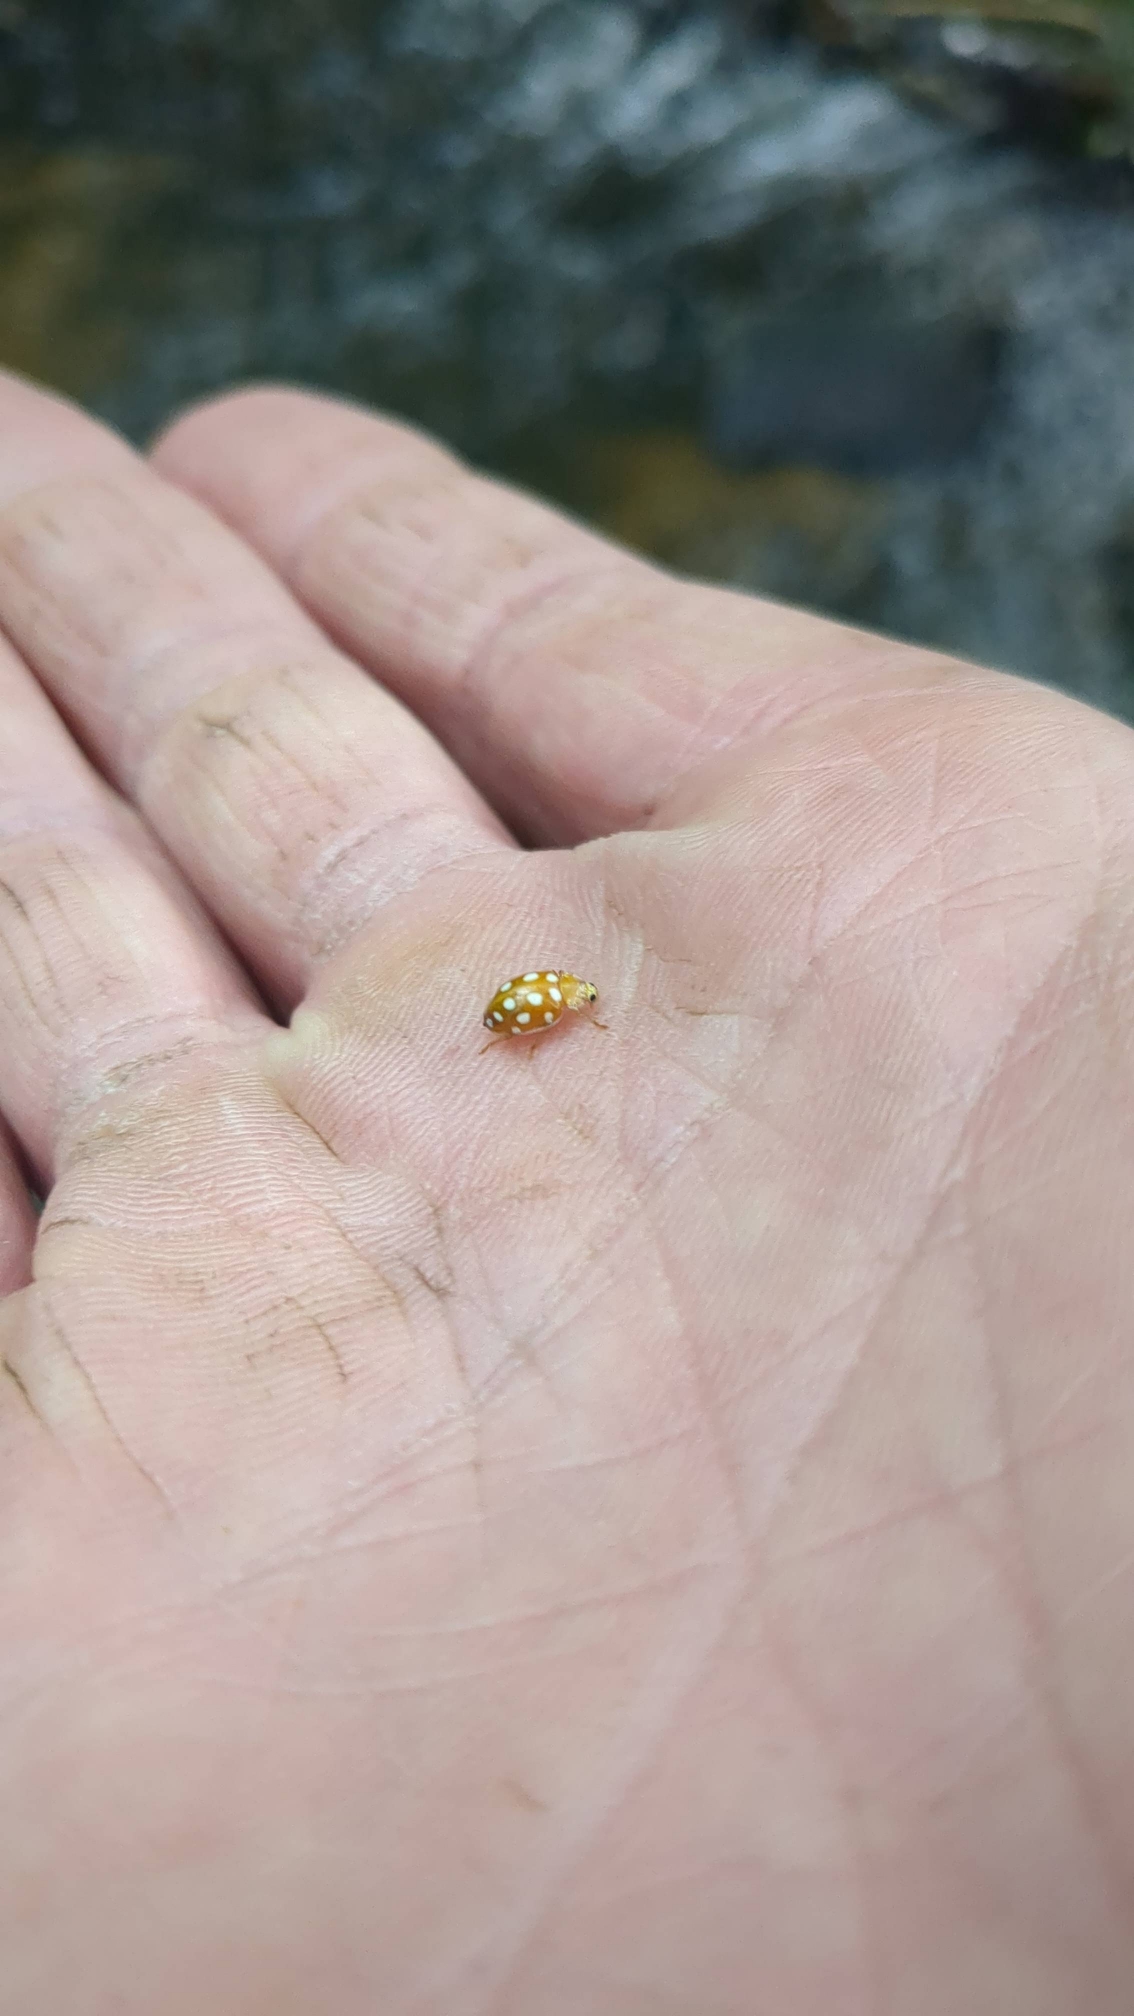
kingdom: Animalia
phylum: Arthropoda
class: Insecta
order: Coleoptera
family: Coccinellidae
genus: Halyzia
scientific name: Halyzia sedecimguttata
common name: Sekstenplettet mariehøne
